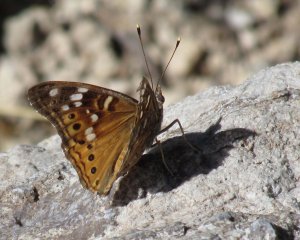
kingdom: Animalia
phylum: Arthropoda
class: Insecta
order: Lepidoptera
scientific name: Lepidoptera
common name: Butterflies
